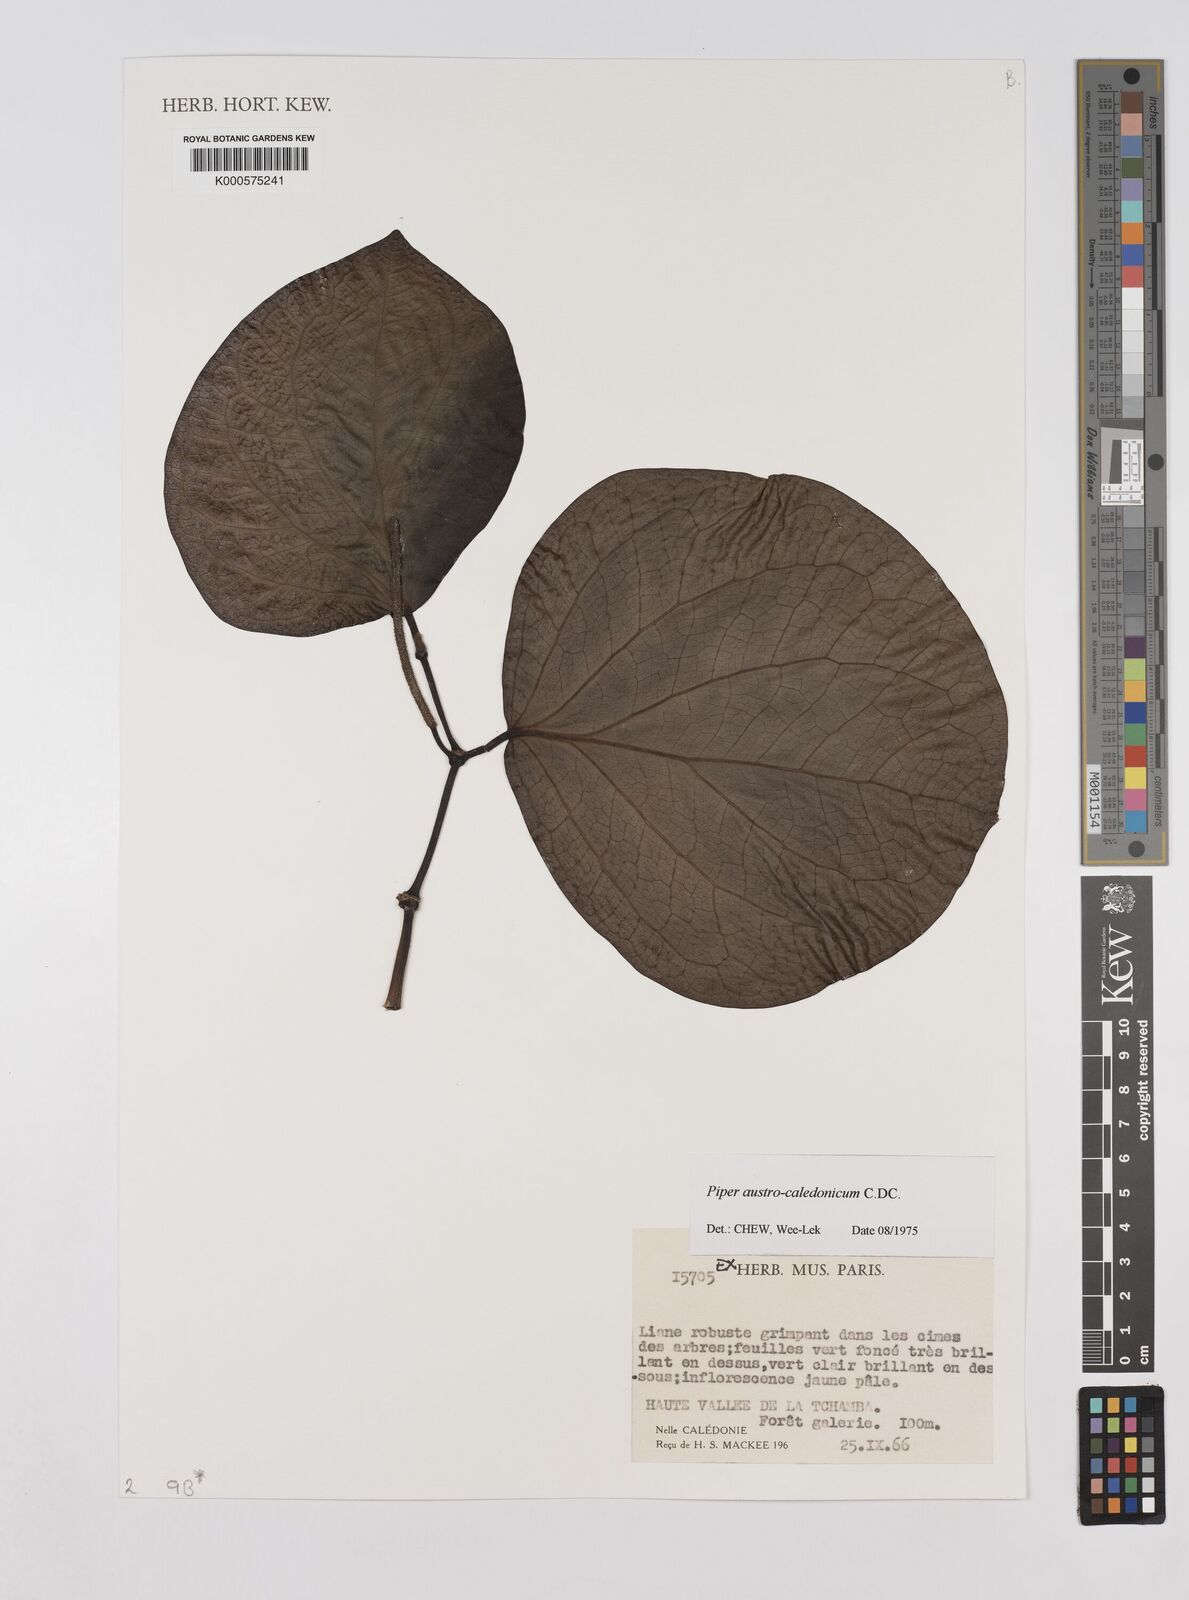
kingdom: Plantae
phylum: Tracheophyta
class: Magnoliopsida
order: Piperales
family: Piperaceae
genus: Piper
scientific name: Piper insectifugum
